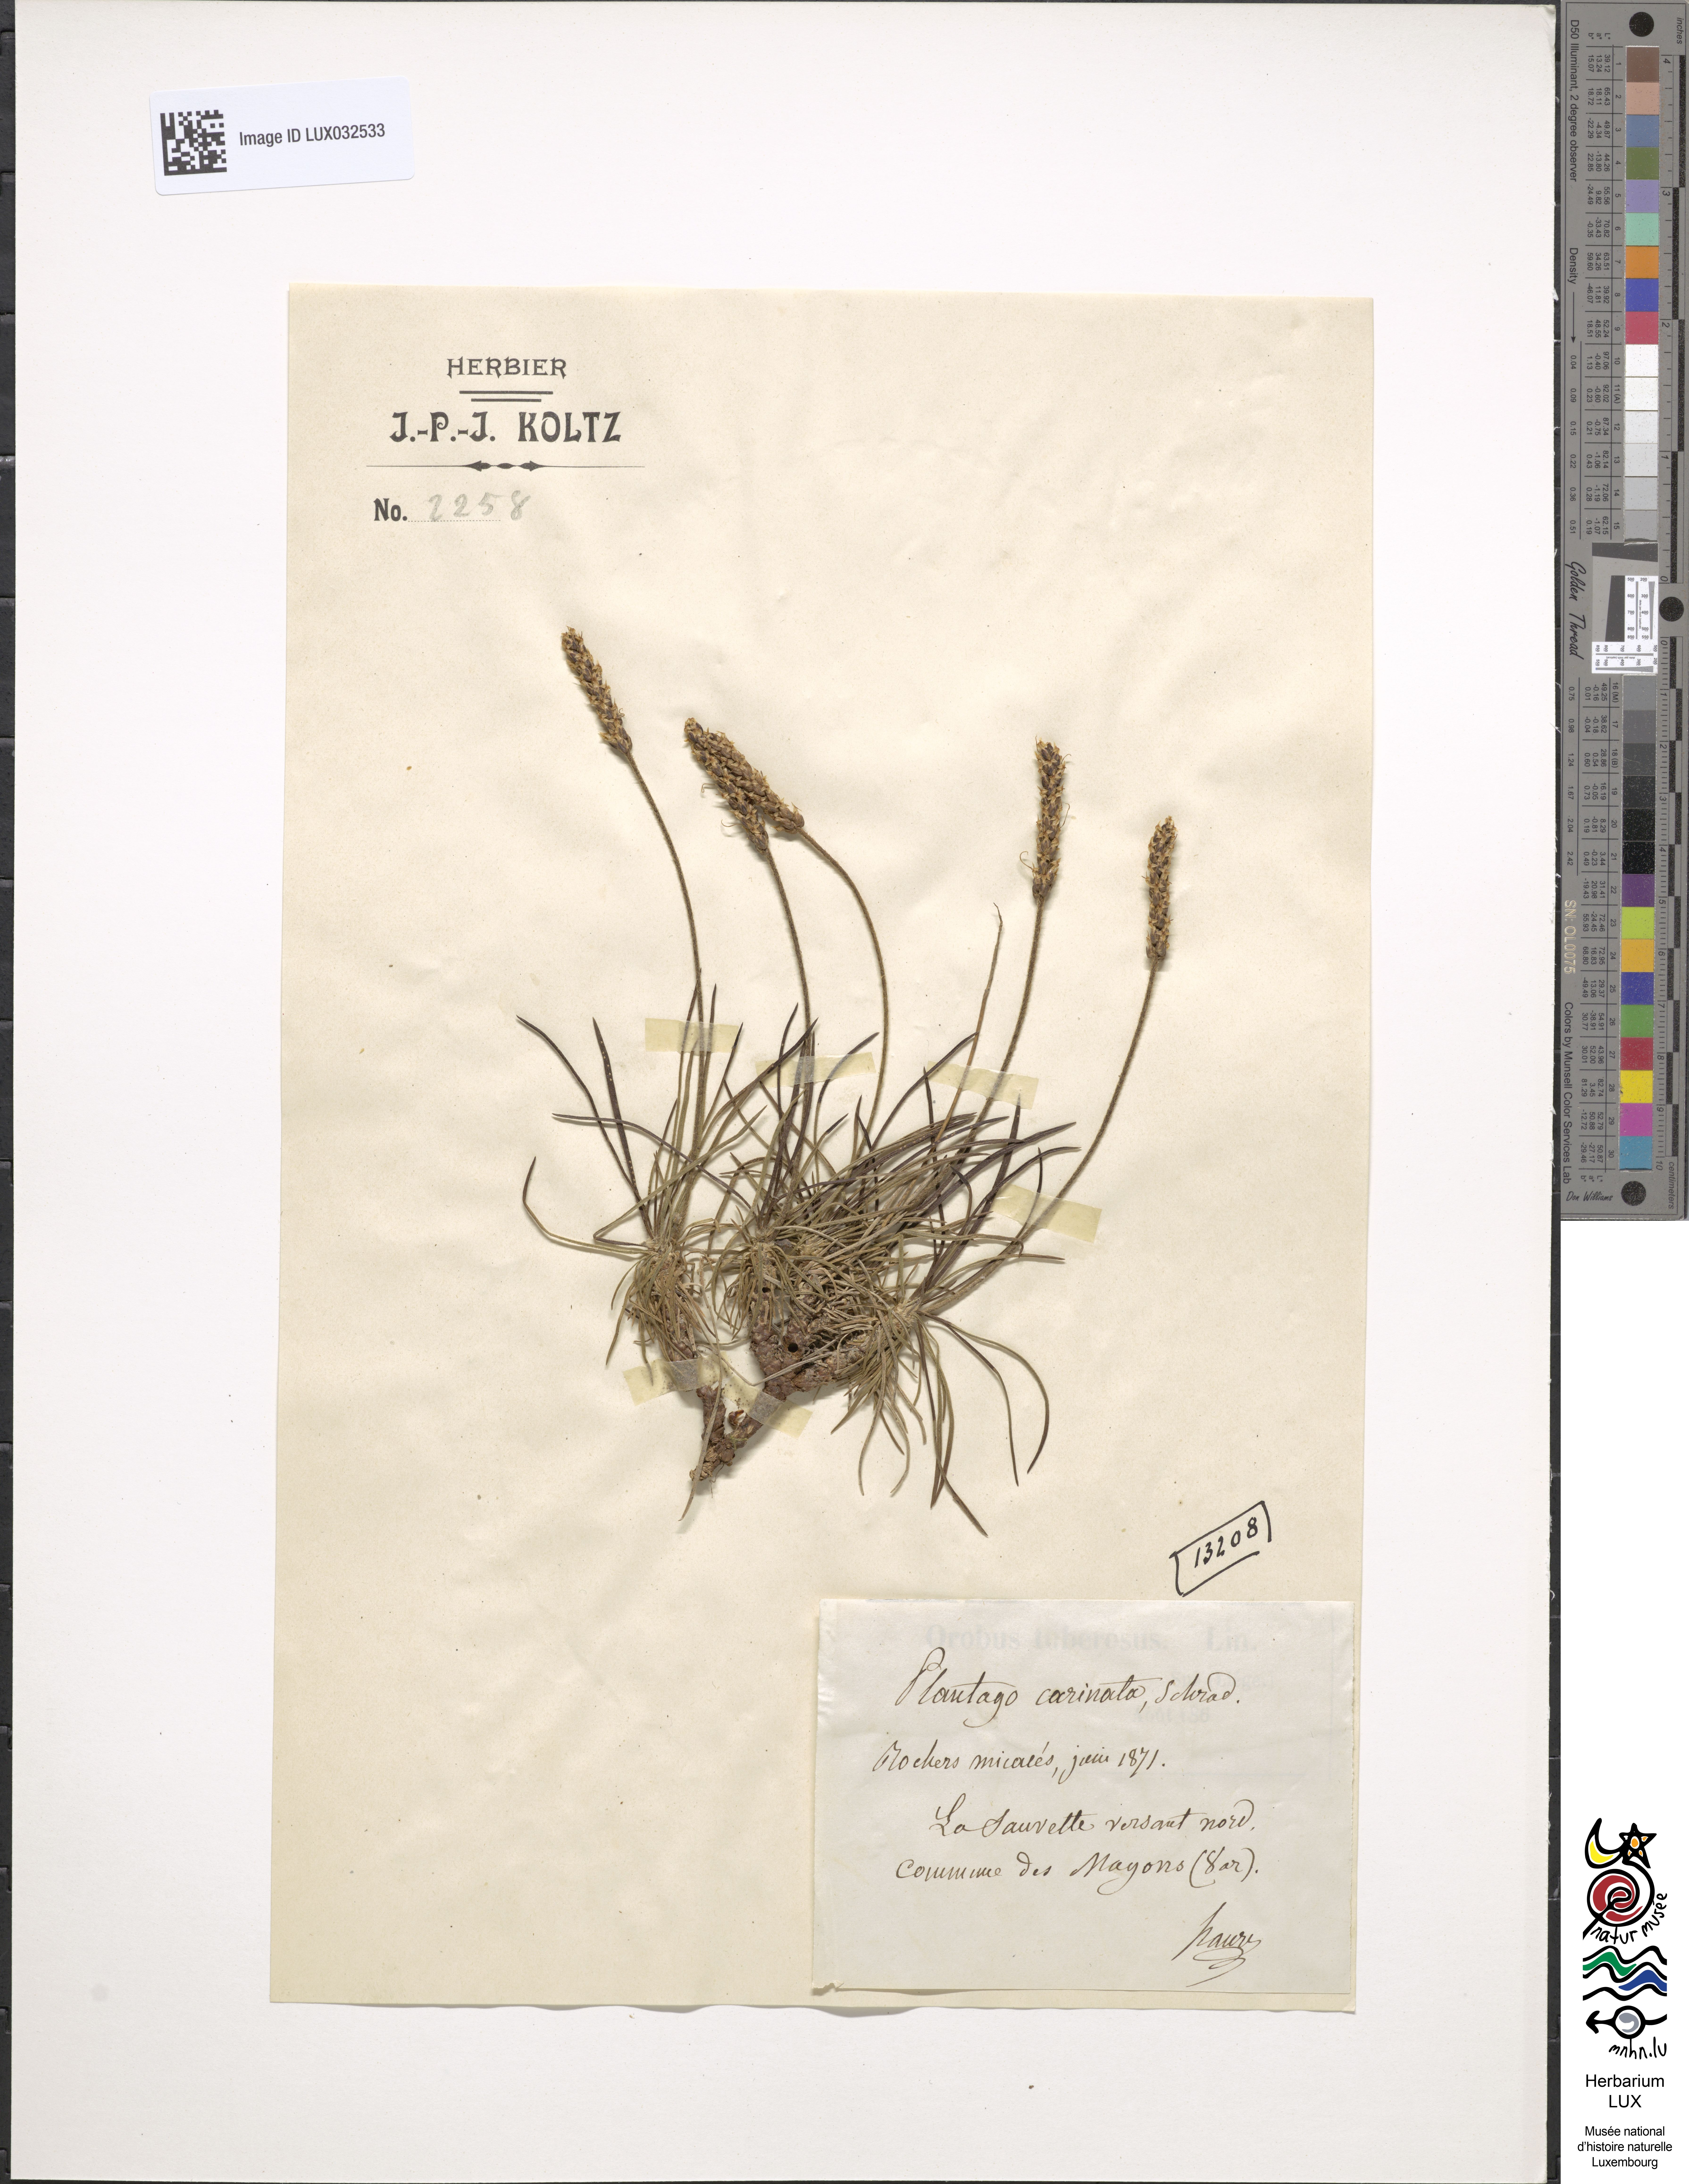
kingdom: Plantae
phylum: Tracheophyta
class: Magnoliopsida
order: Lamiales
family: Plantaginaceae
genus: Plantago
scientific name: Plantago subulata
